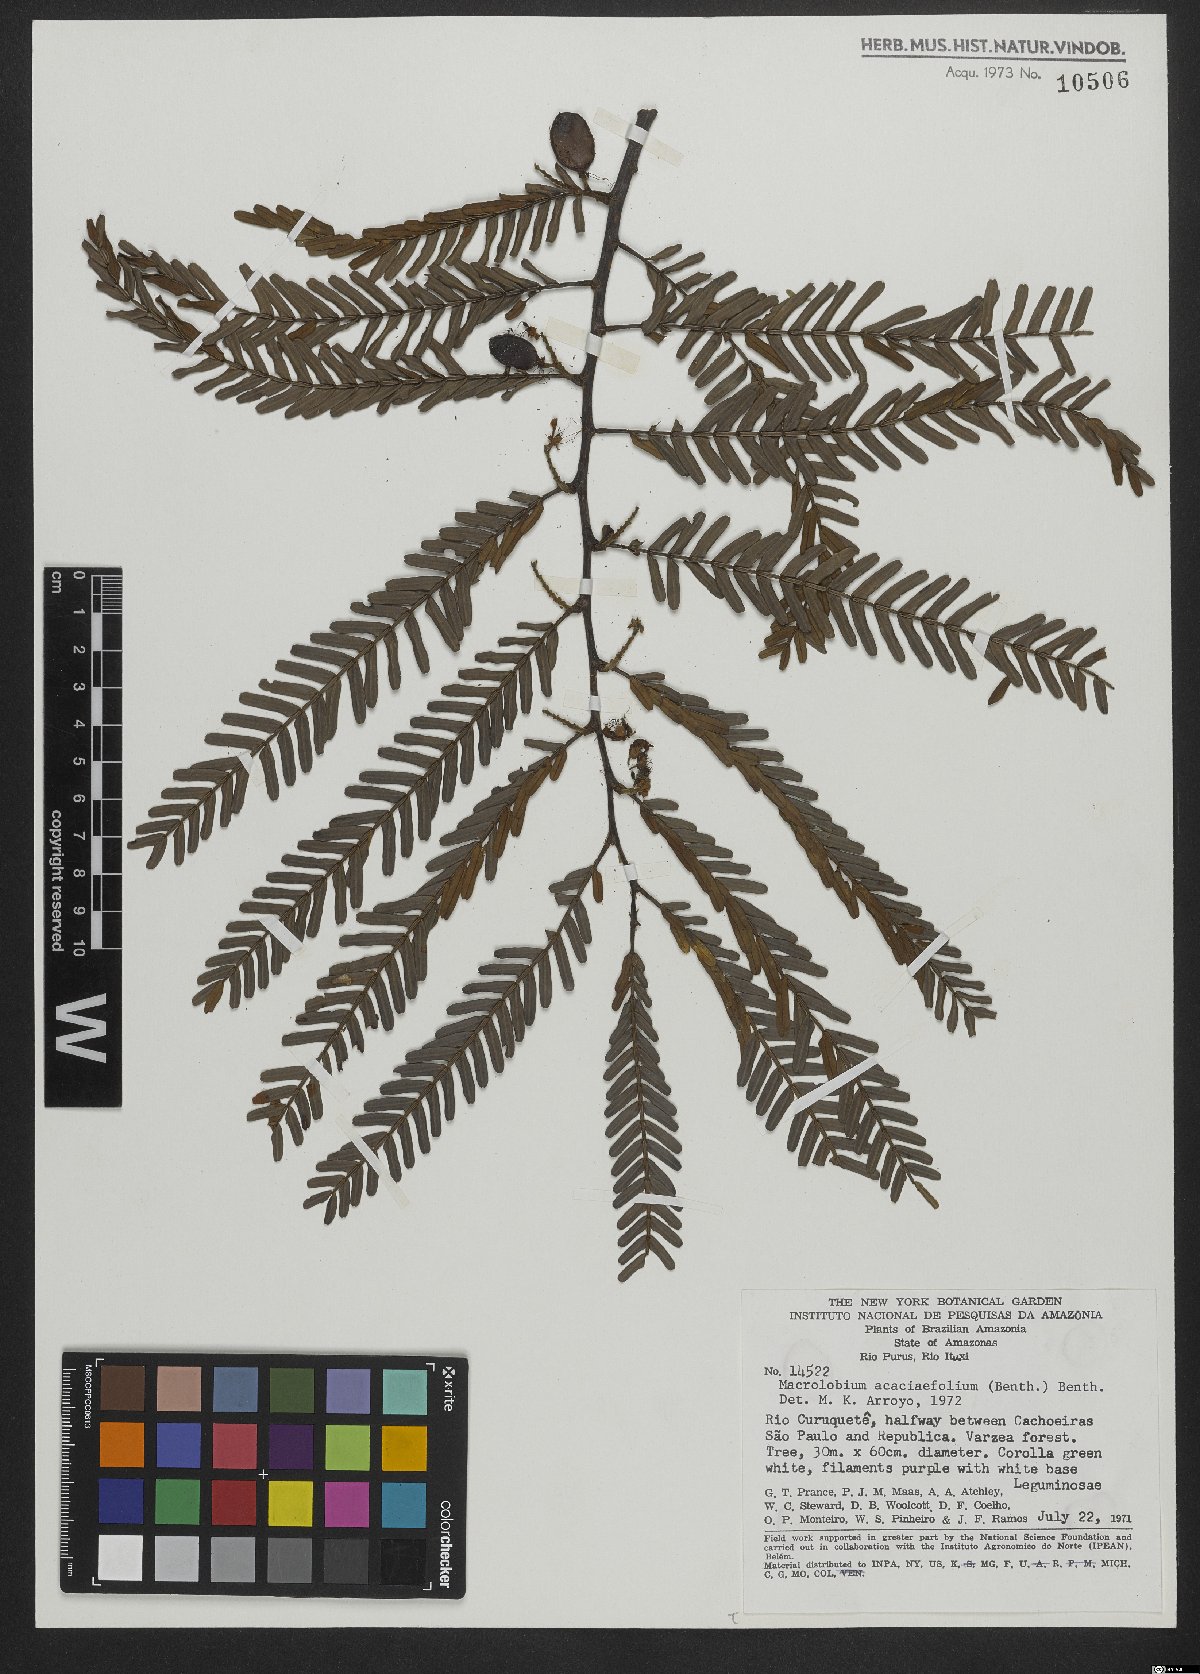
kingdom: Plantae
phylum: Tracheophyta
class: Magnoliopsida
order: Fabales
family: Fabaceae
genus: Macrolobium
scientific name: Macrolobium acaciifolium
